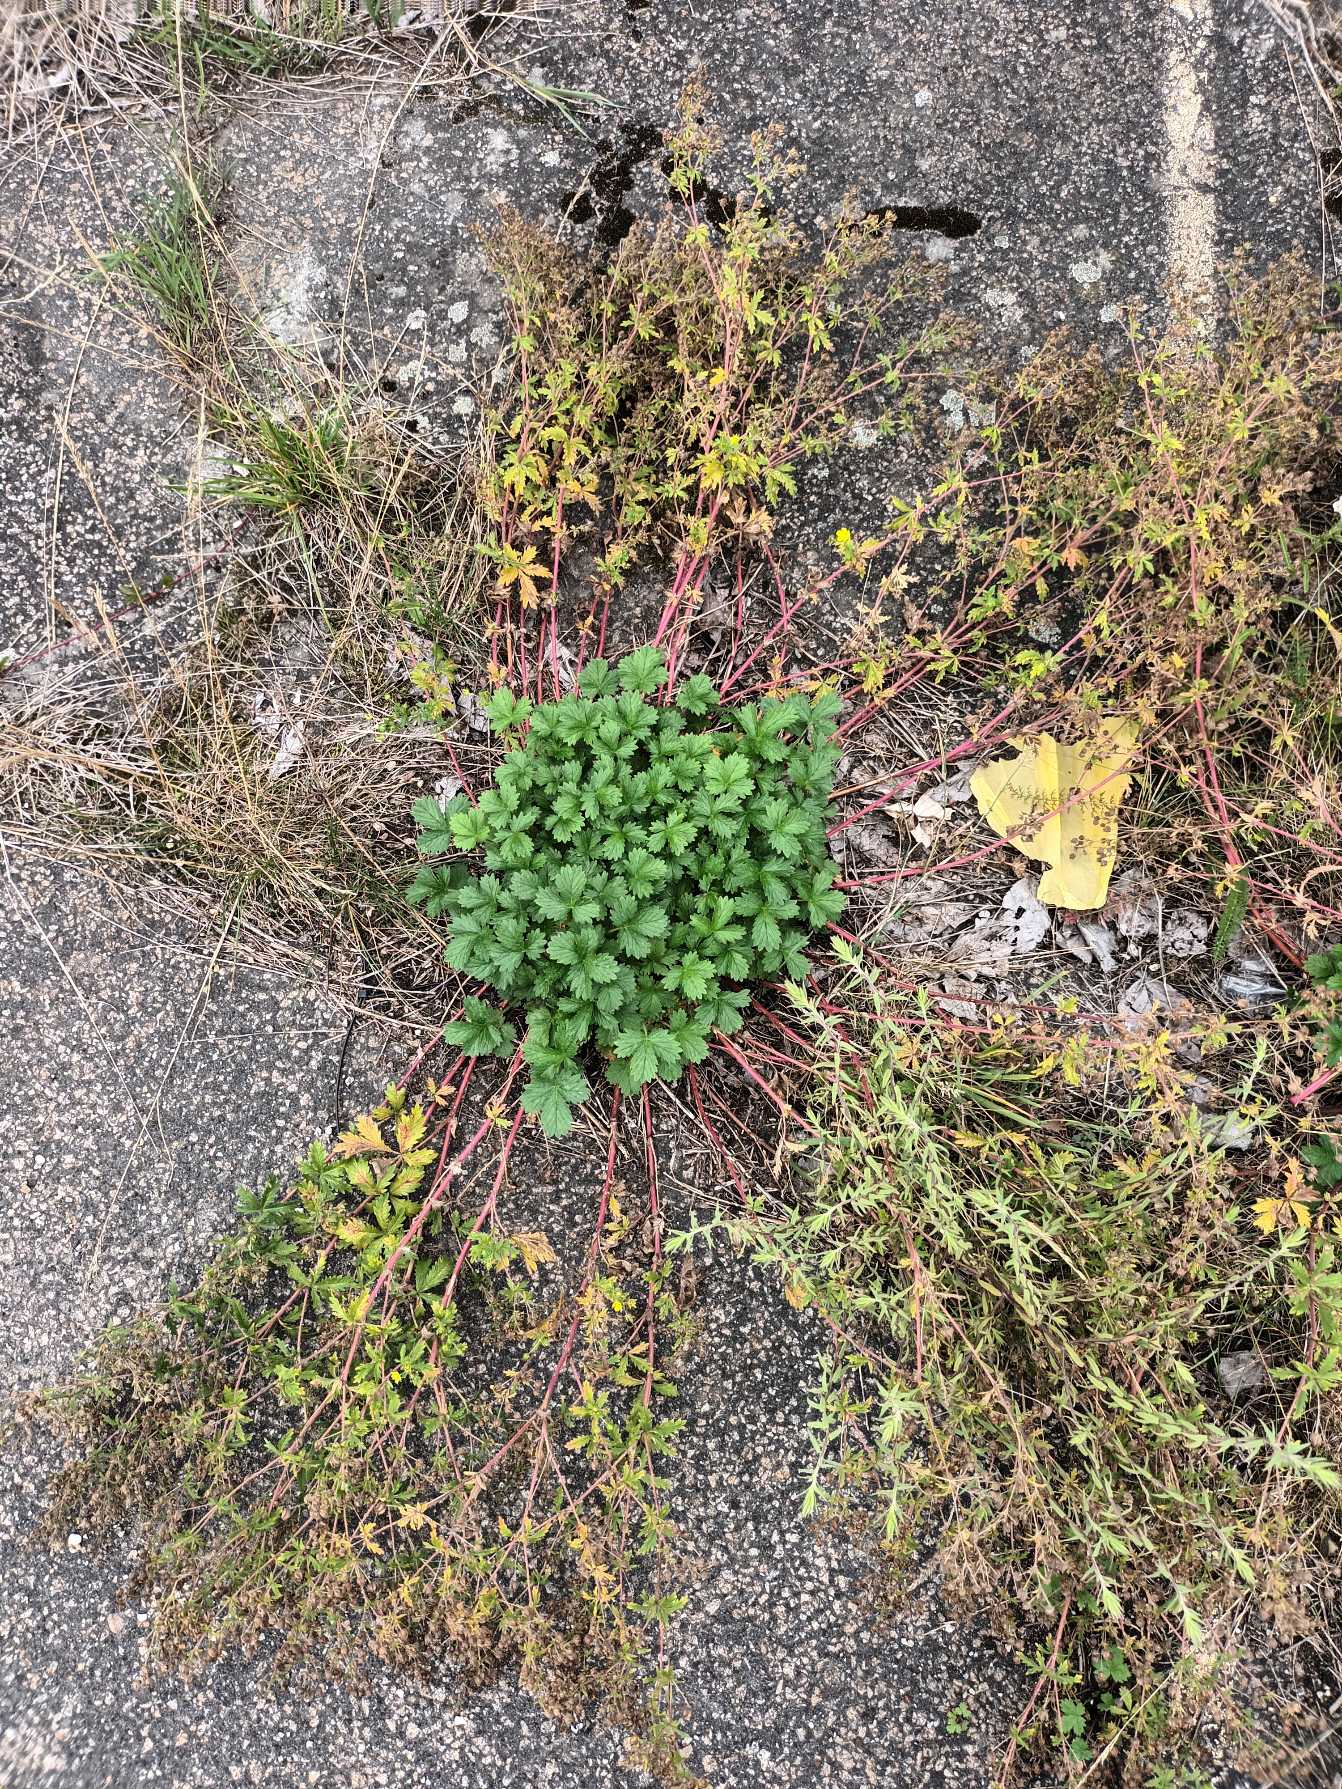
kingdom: Plantae
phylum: Tracheophyta
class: Magnoliopsida
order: Rosales
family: Rosaceae
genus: Potentilla
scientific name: Potentilla intermedia
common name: Småblomstret potentil
